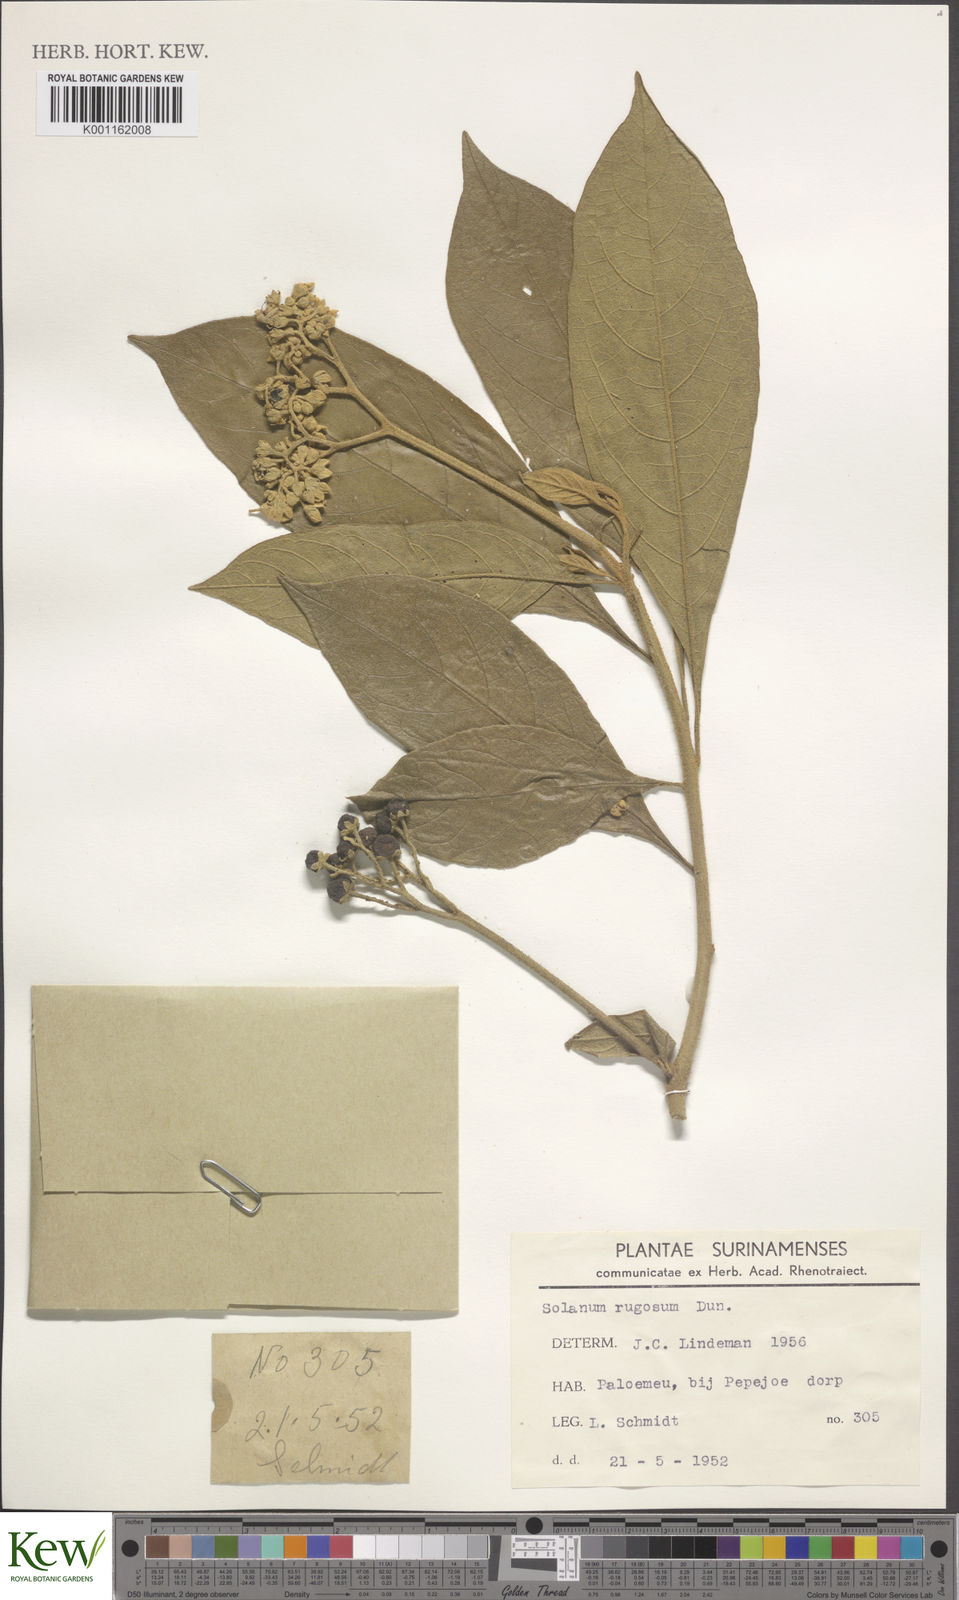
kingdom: Plantae
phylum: Tracheophyta
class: Magnoliopsida
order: Solanales
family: Solanaceae
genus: Solanum
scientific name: Solanum rugosum
